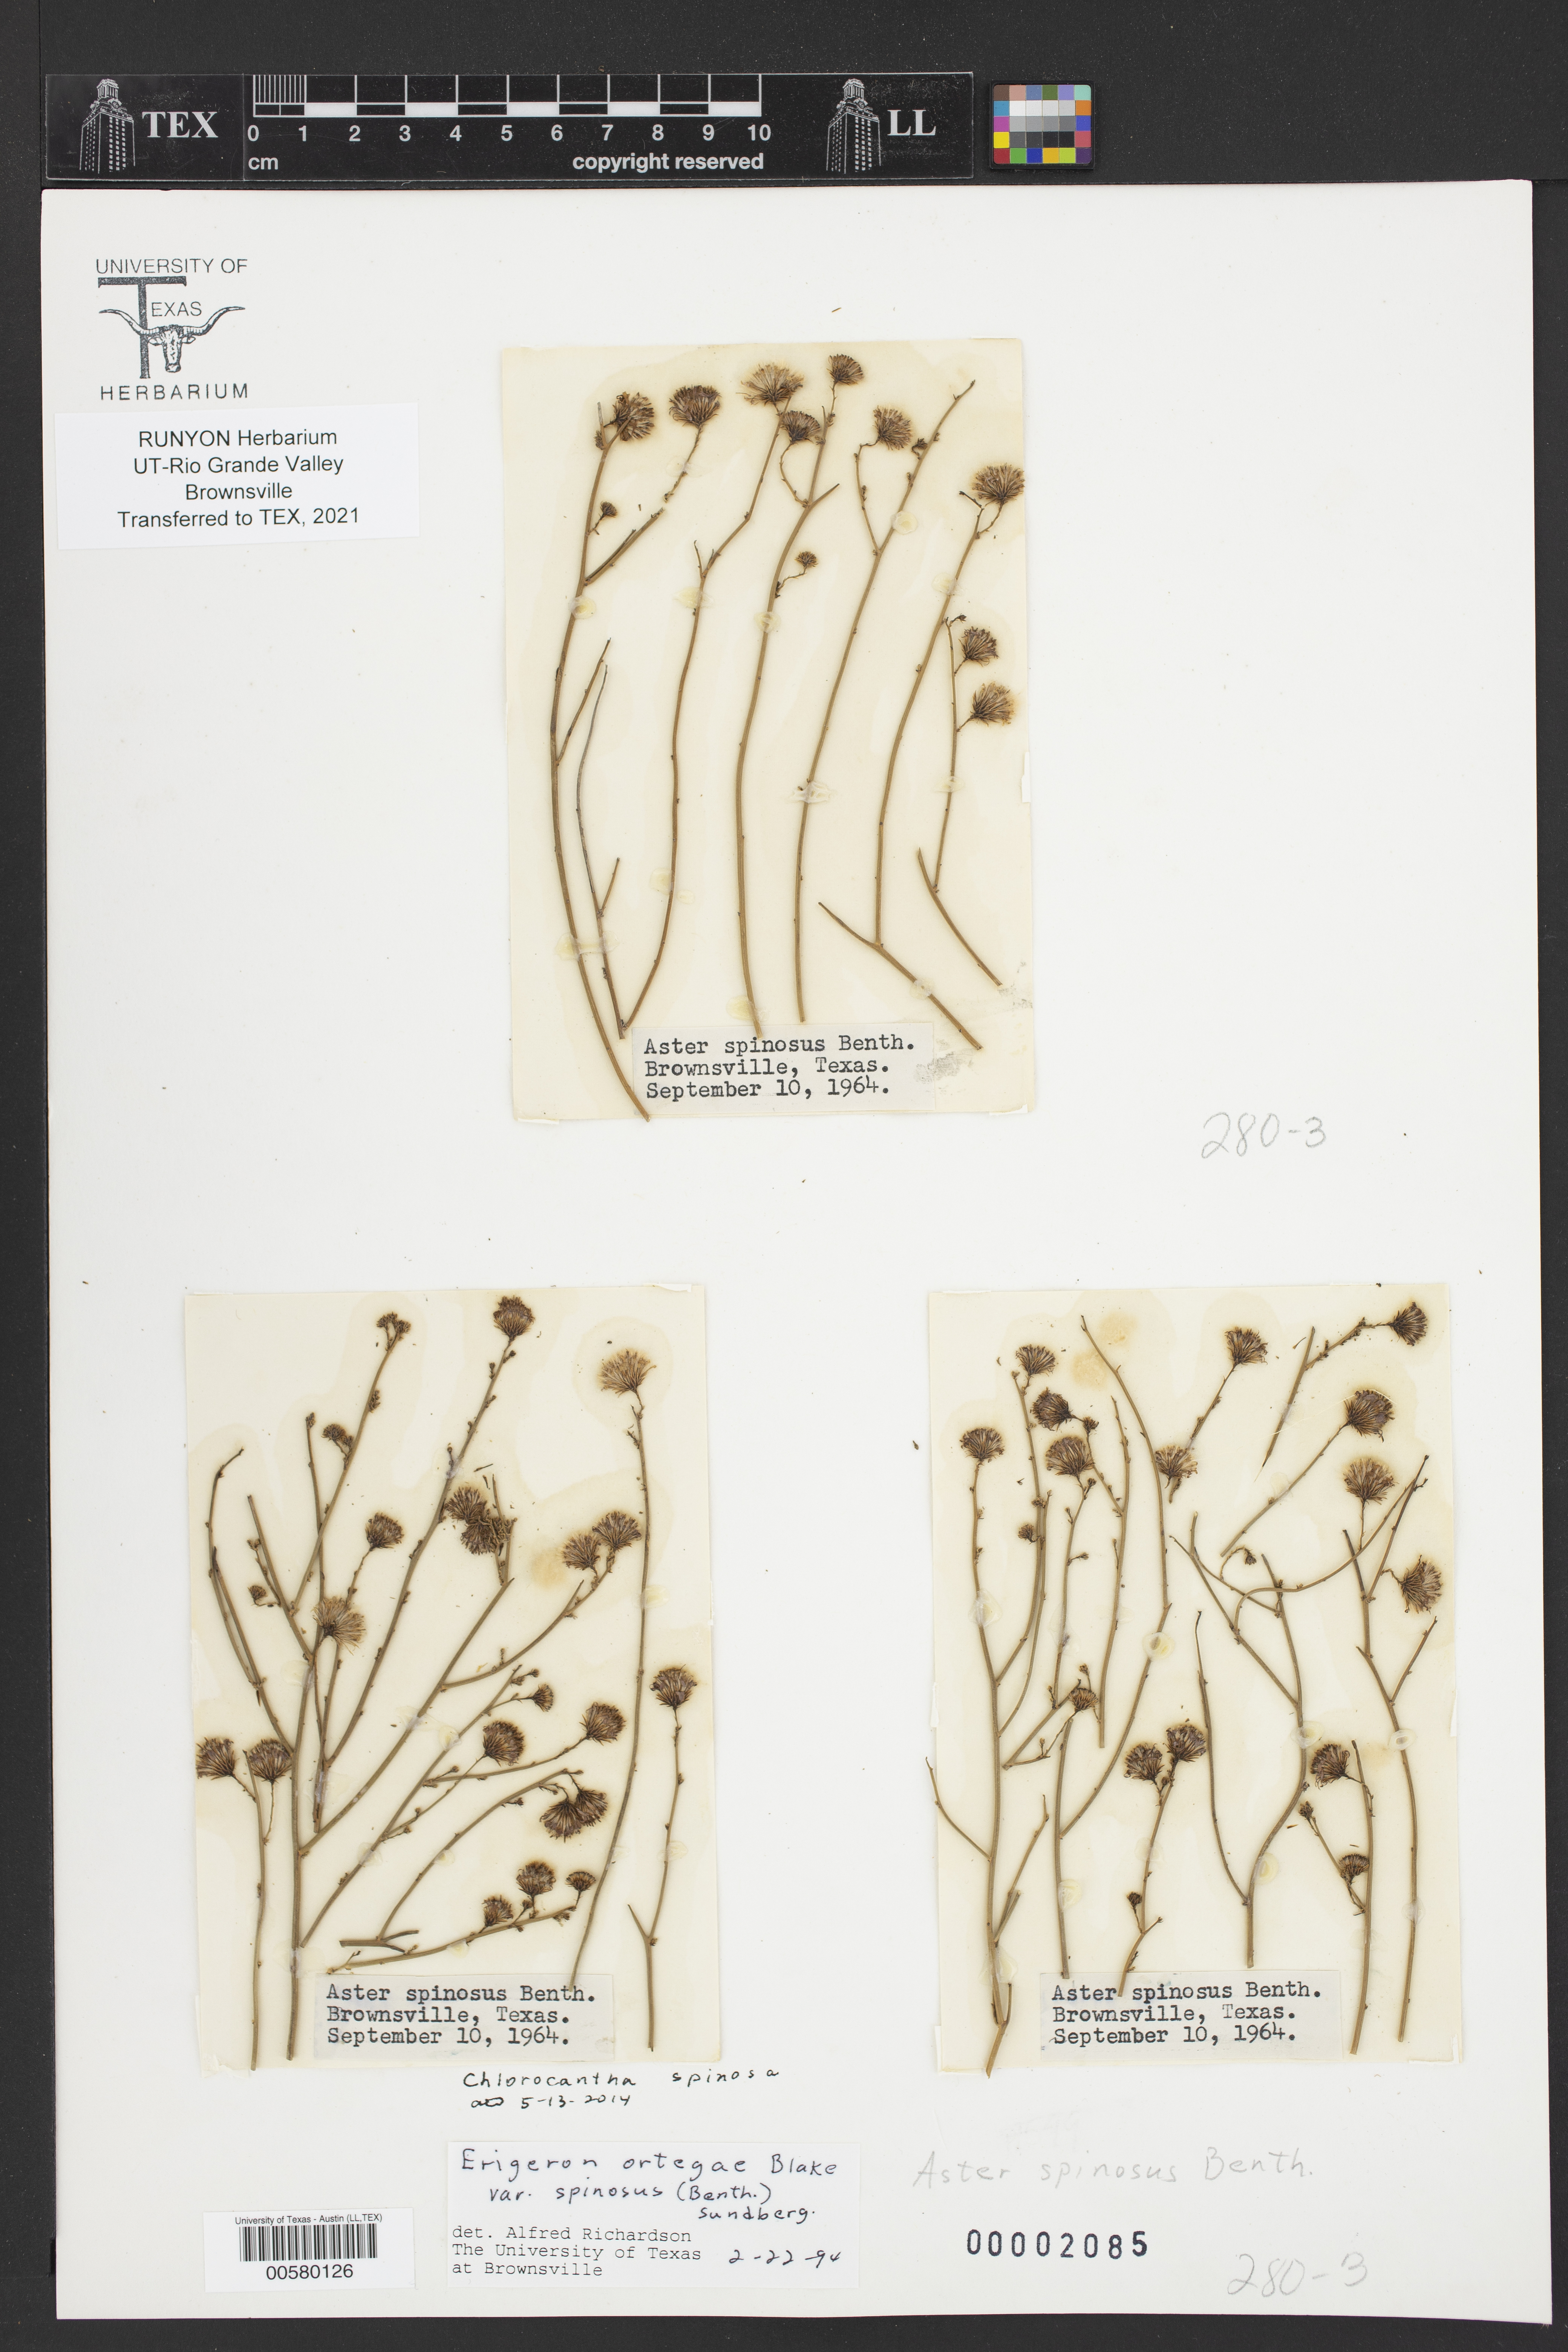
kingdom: Plantae
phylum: Tracheophyta
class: Magnoliopsida
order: Asterales
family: Asteraceae
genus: Chloracantha
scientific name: Chloracantha spinosa
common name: Mexican devilweed
